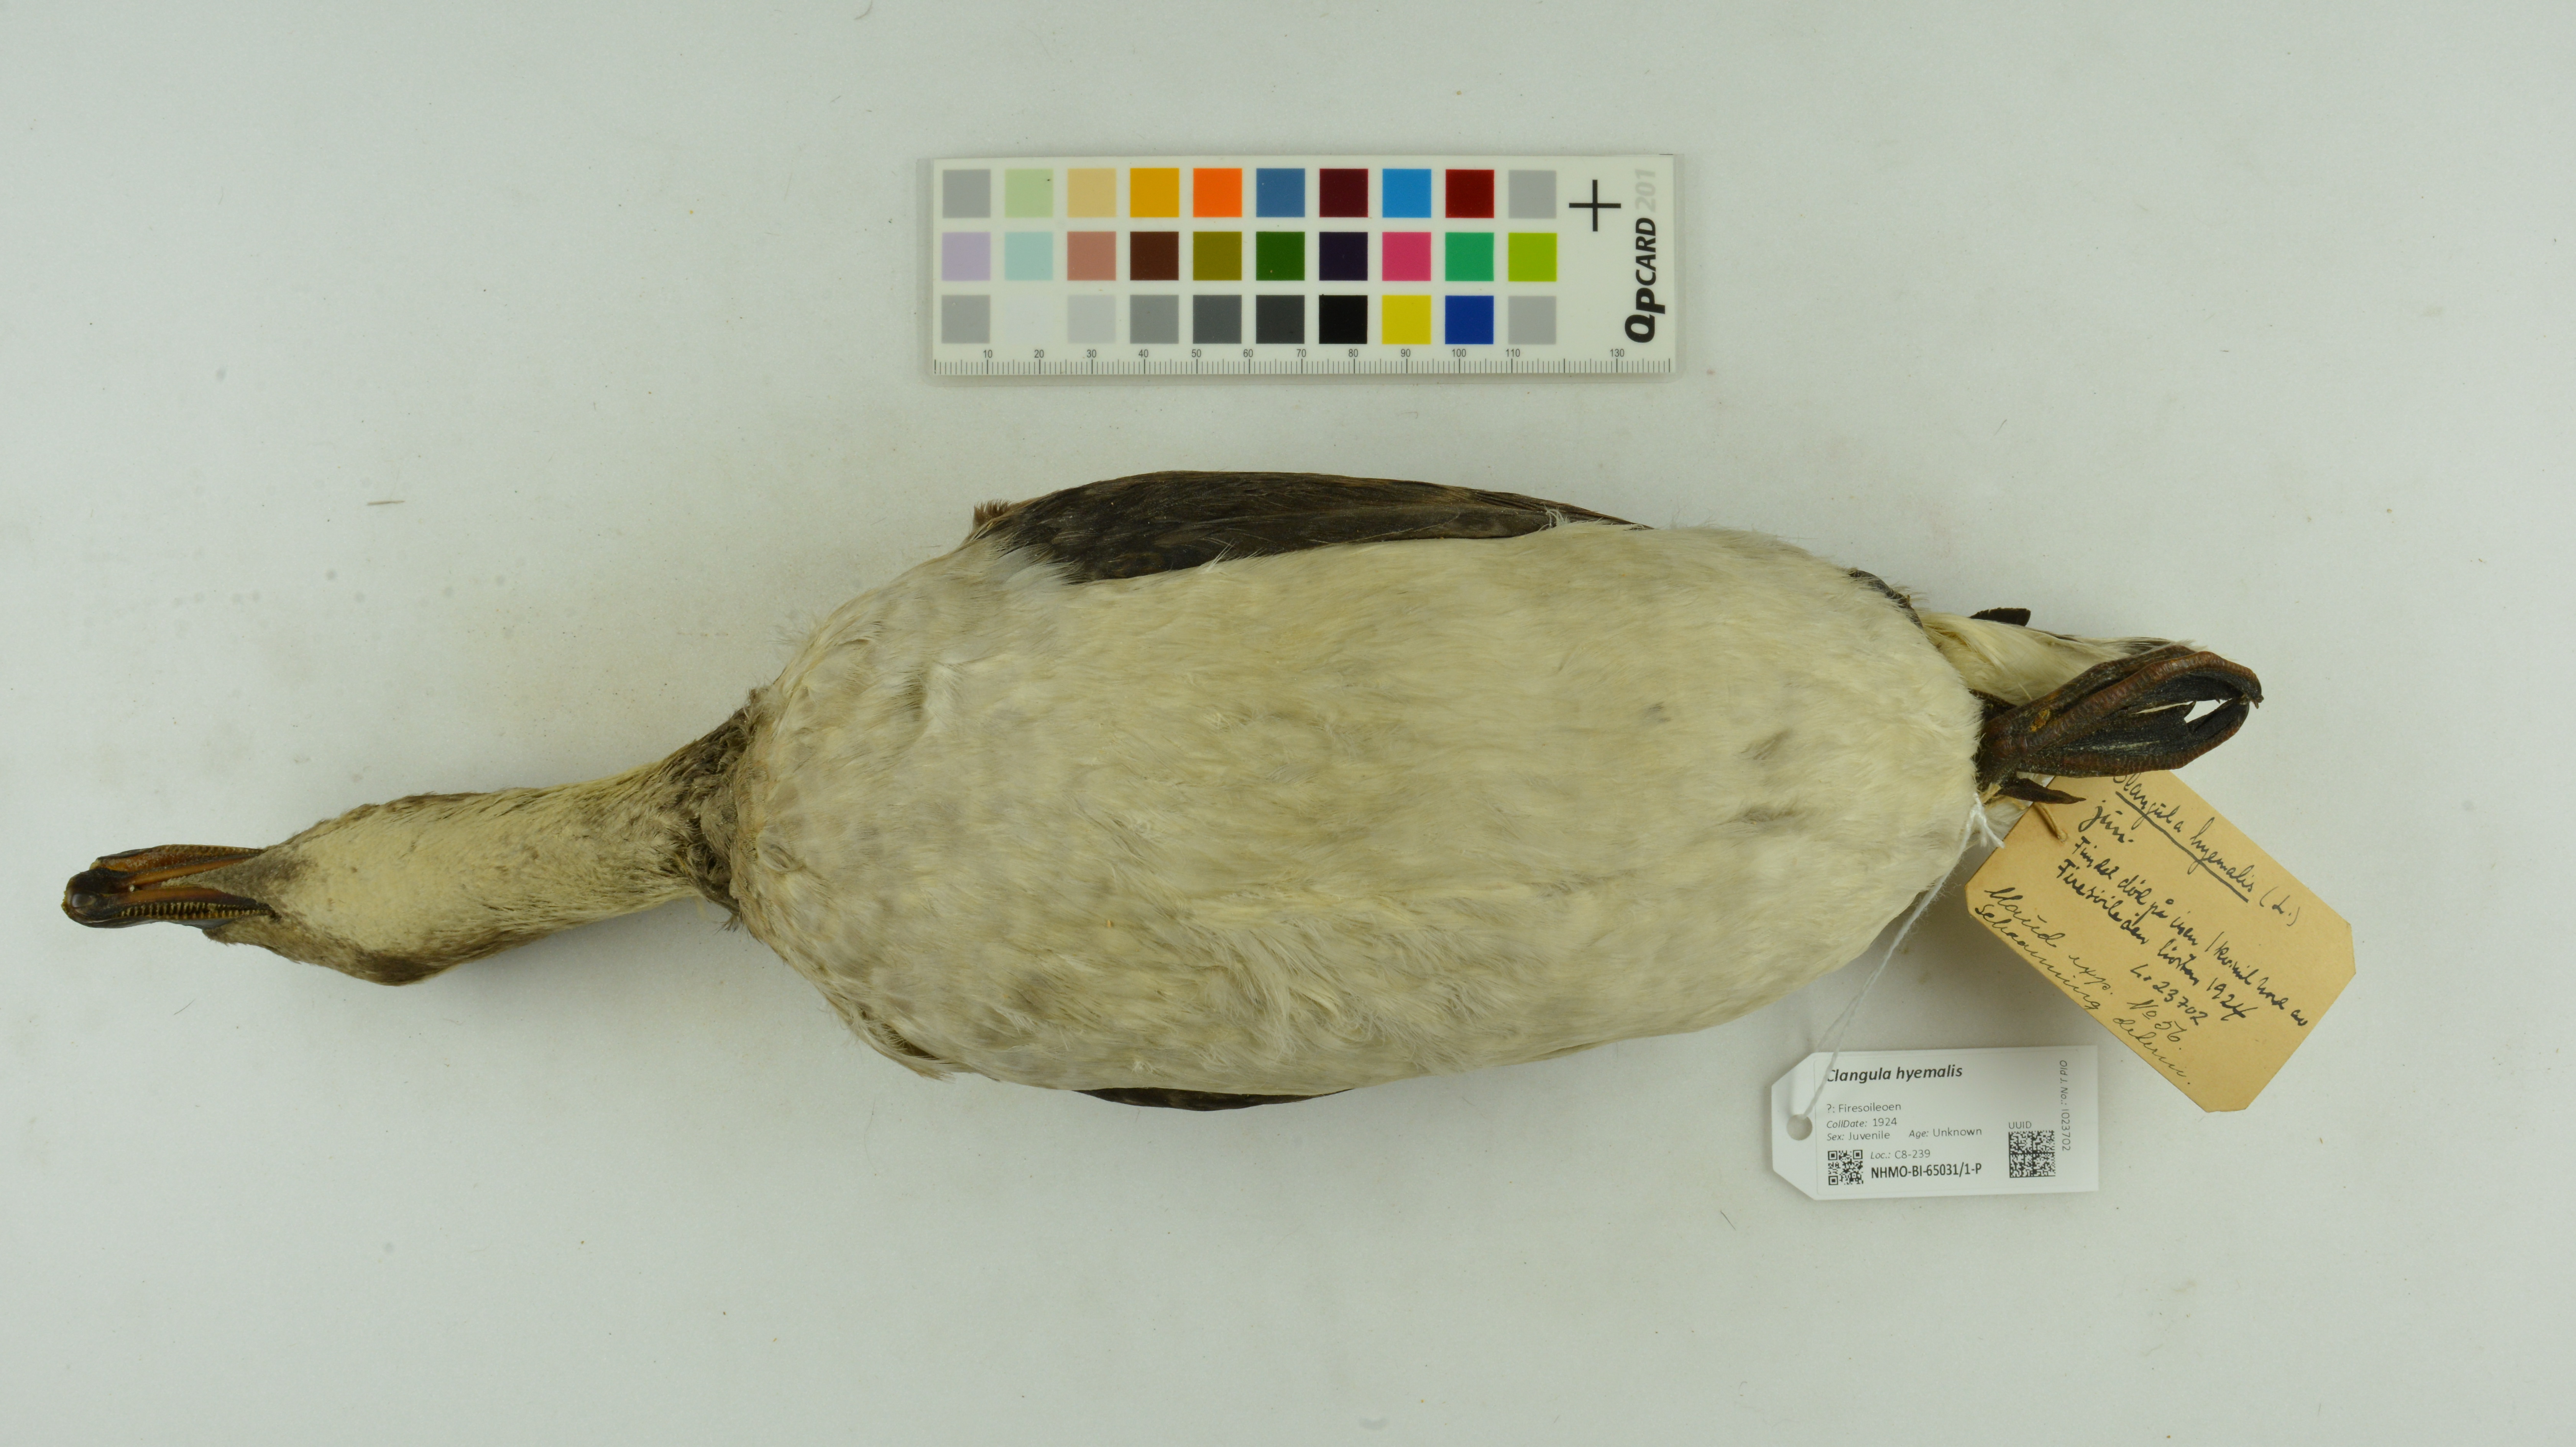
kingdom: Animalia
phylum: Chordata
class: Aves
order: Anseriformes
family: Anatidae
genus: Clangula
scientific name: Clangula hyemalis
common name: Long-tailed duck
